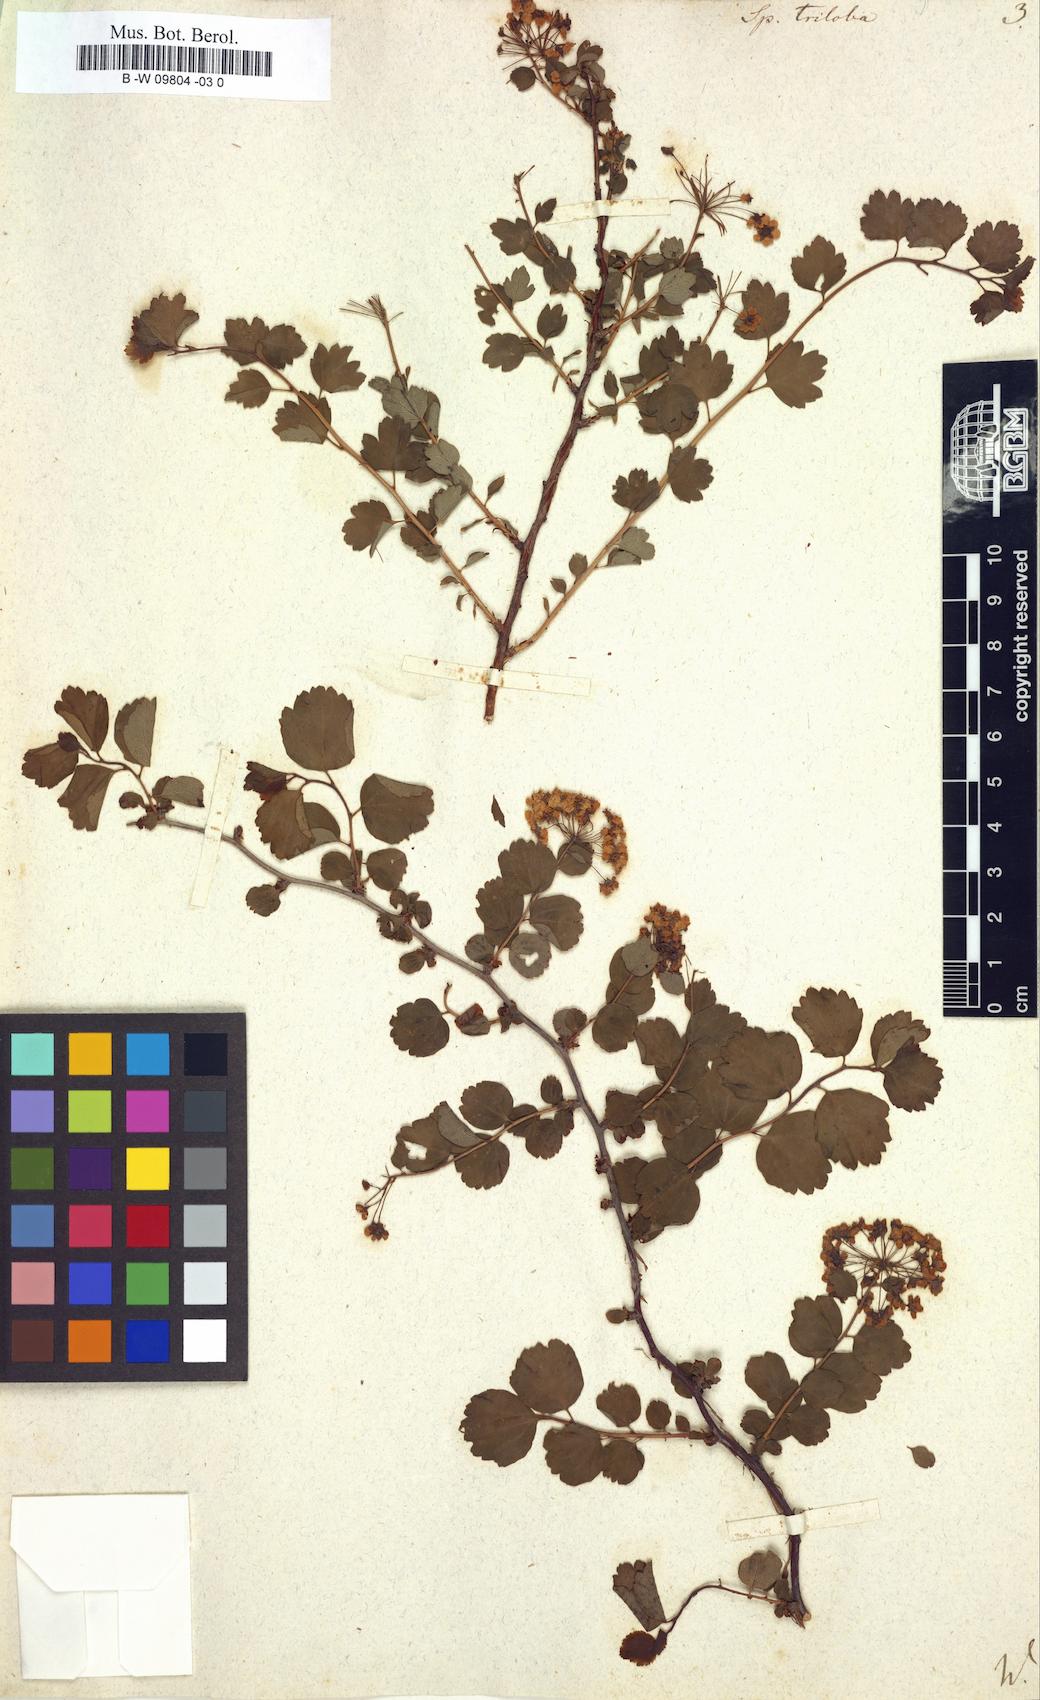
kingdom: Plantae
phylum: Tracheophyta
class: Magnoliopsida
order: Rosales
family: Rosaceae
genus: Spiraea
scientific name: Spiraea trilobata
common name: Asian meadowsweet
